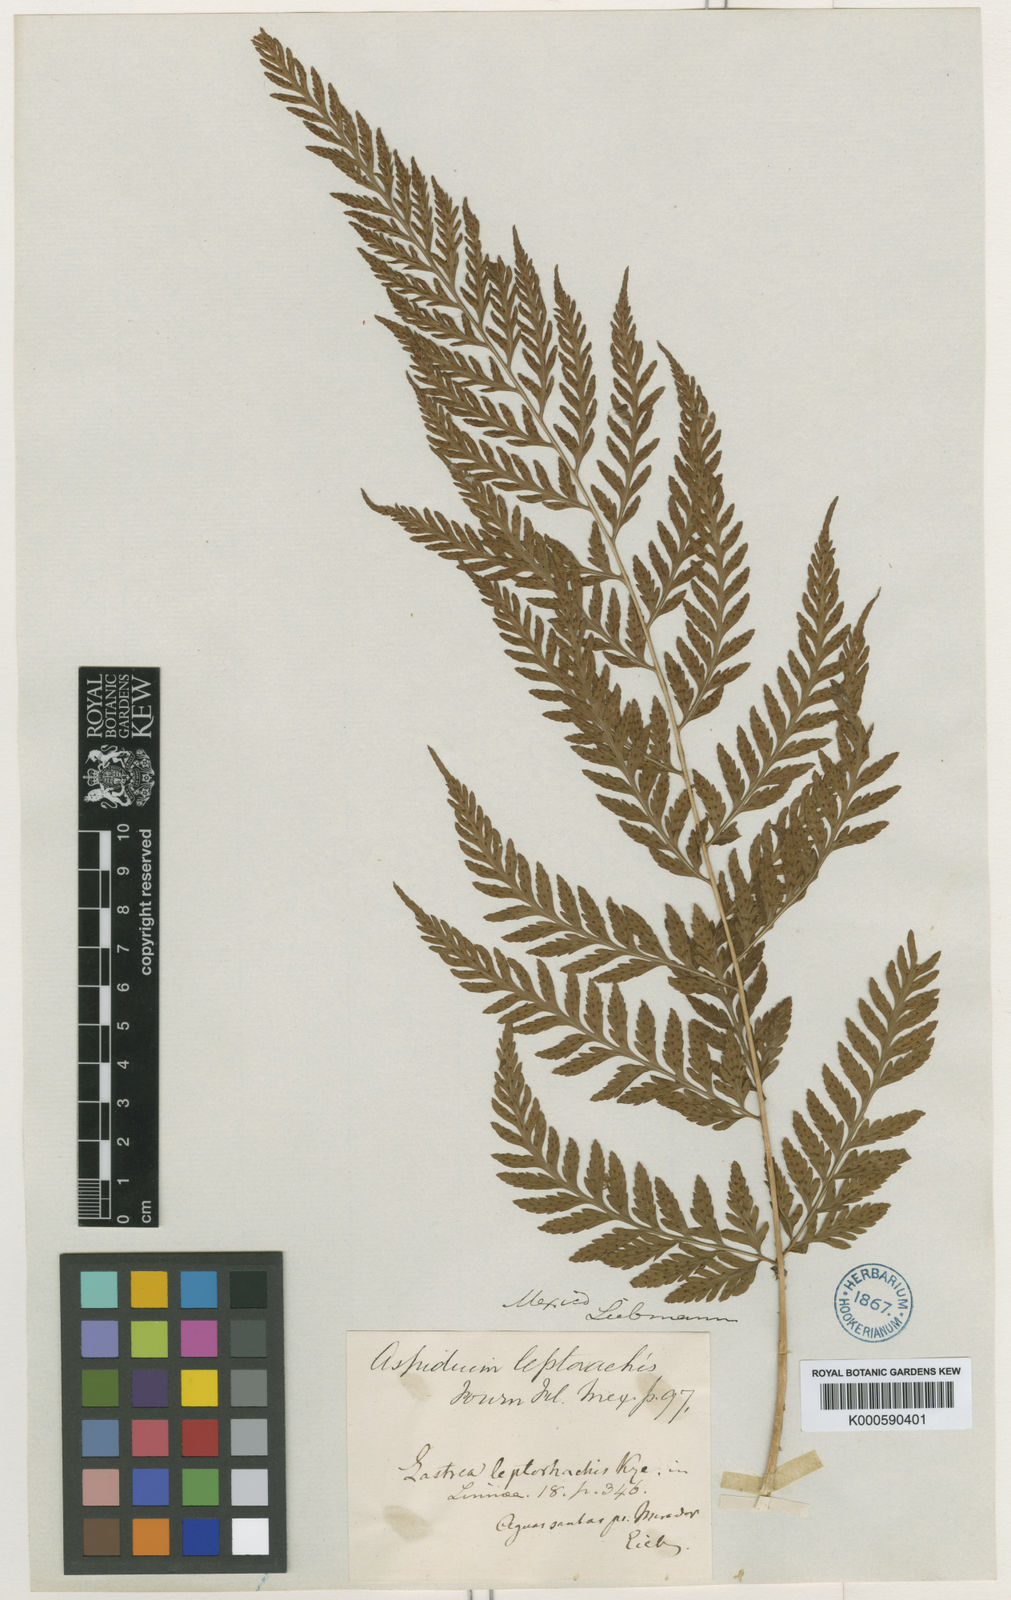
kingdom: Plantae
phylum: Tracheophyta
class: Polypodiopsida
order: Polypodiales
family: Dryopteridaceae
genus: Dryopteris
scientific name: Dryopteris patula
